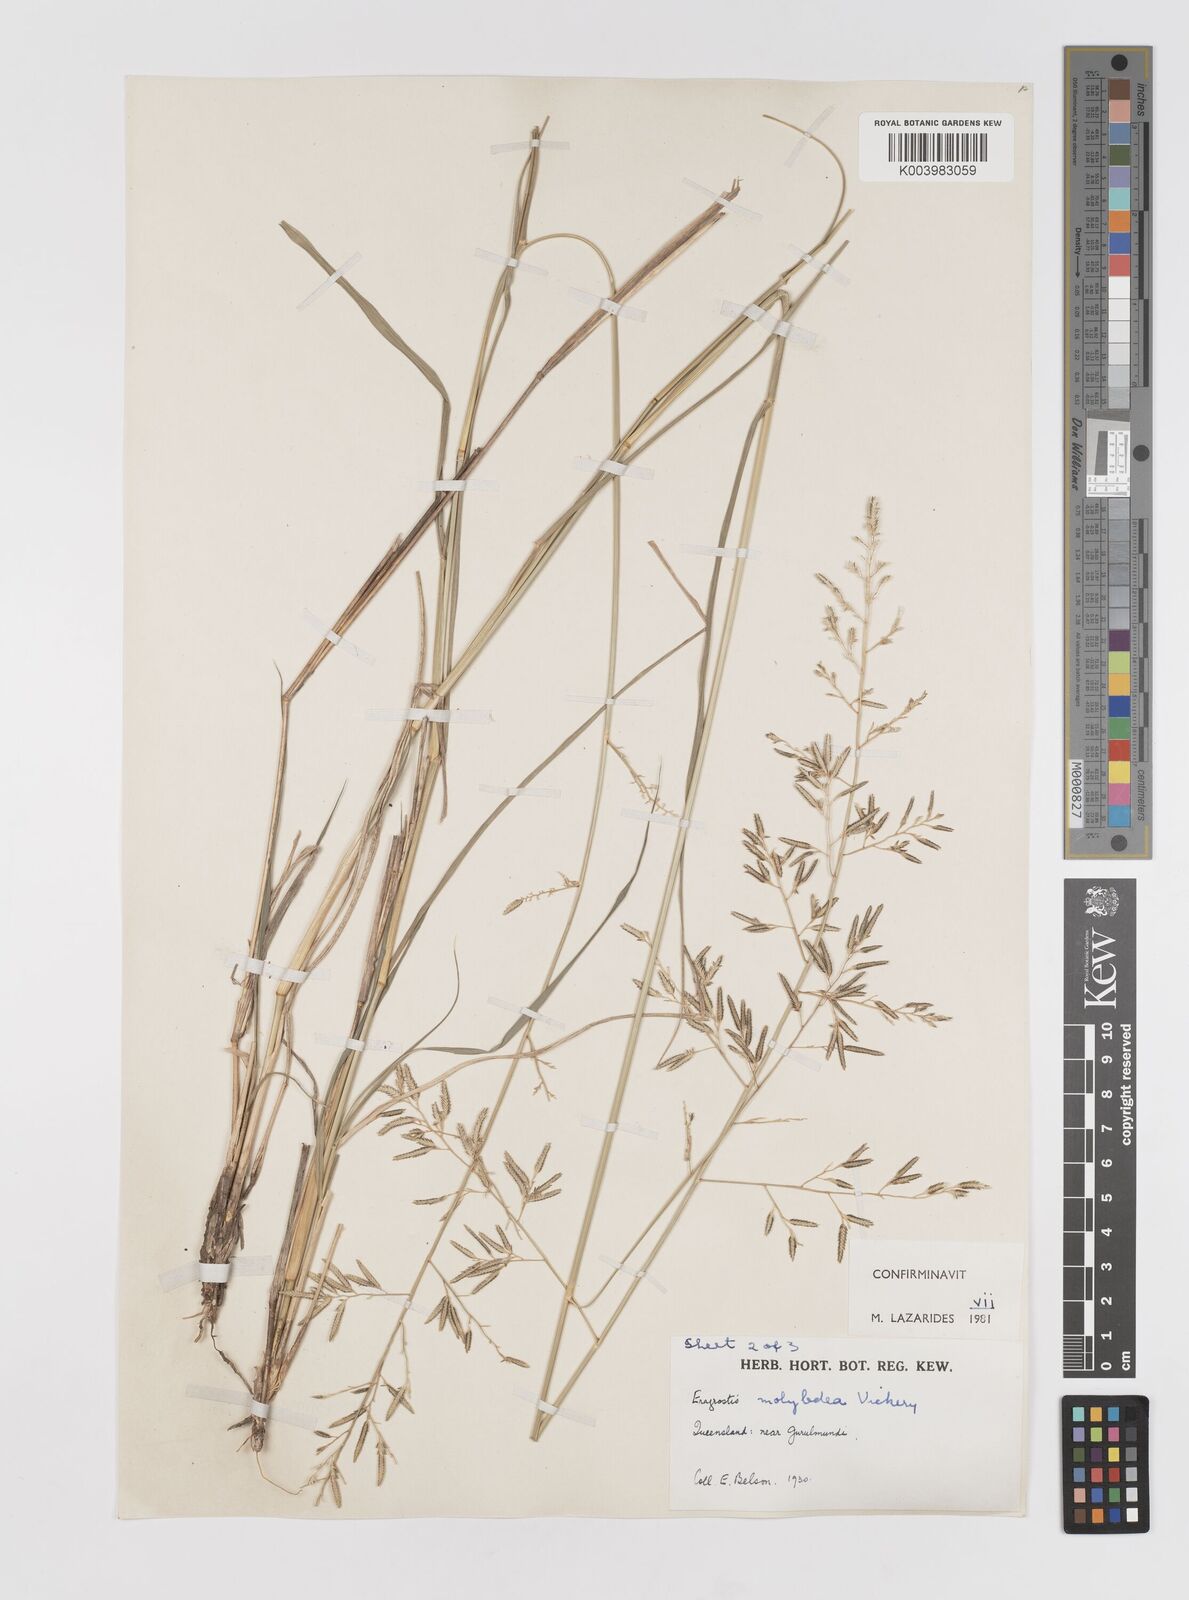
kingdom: Plantae
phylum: Tracheophyta
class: Liliopsida
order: Poales
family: Poaceae
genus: Eragrostis
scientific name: Eragrostis leptostachya
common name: Australian lovegrass
